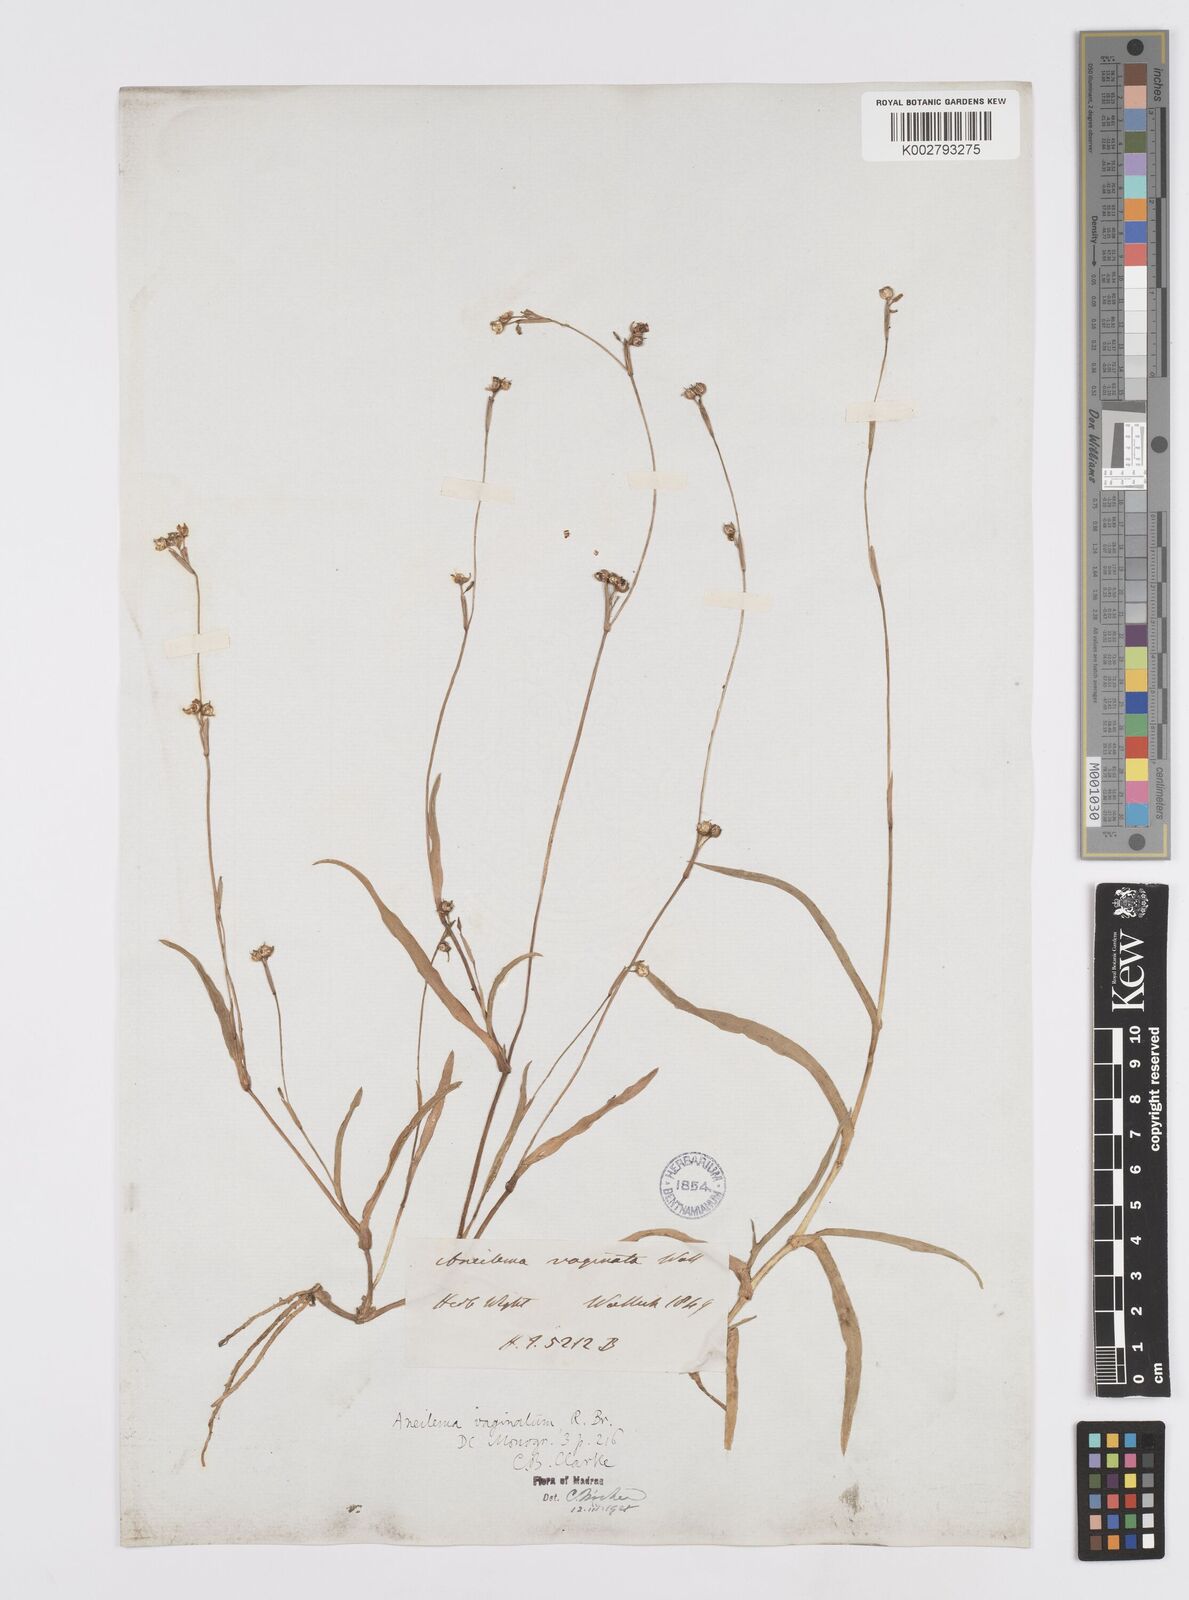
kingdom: Plantae
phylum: Tracheophyta
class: Liliopsida
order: Commelinales
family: Commelinaceae
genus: Murdannia
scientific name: Murdannia vaginata
